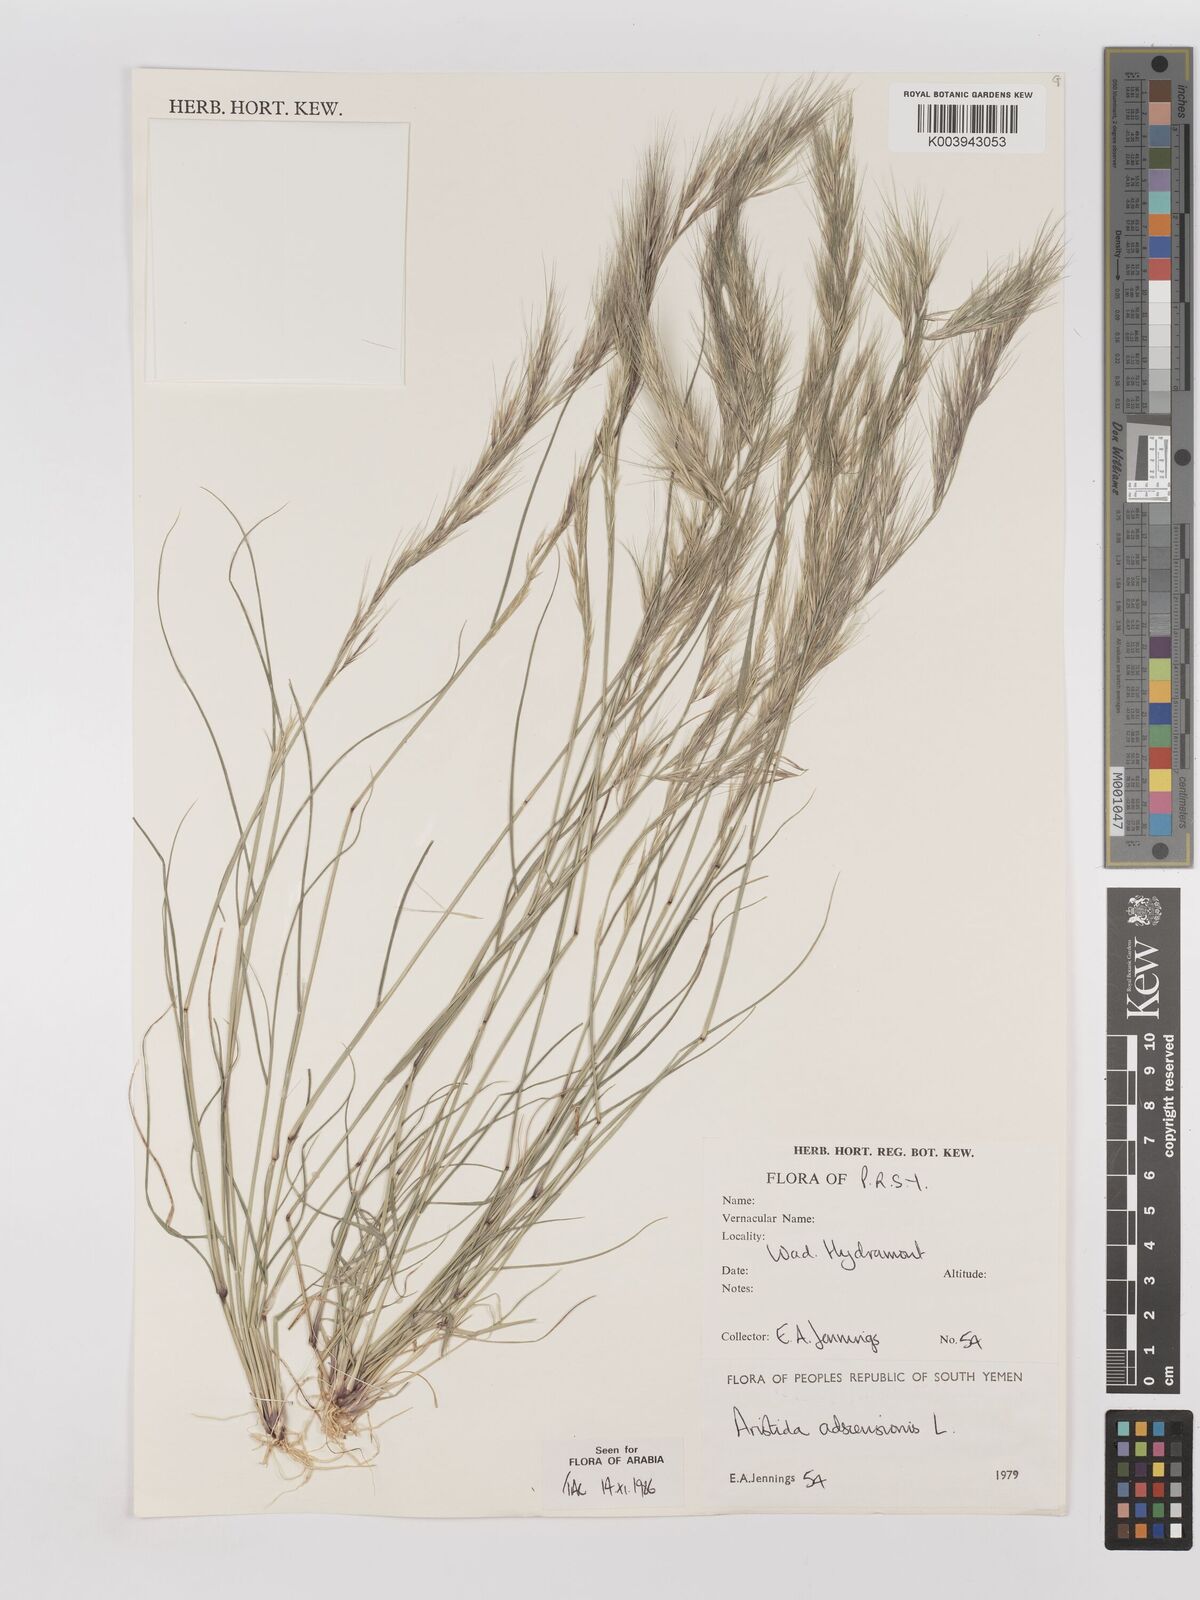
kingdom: Plantae
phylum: Tracheophyta
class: Liliopsida
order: Poales
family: Poaceae
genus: Aristida
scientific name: Aristida adscensionis
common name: Sixweeks threeawn
